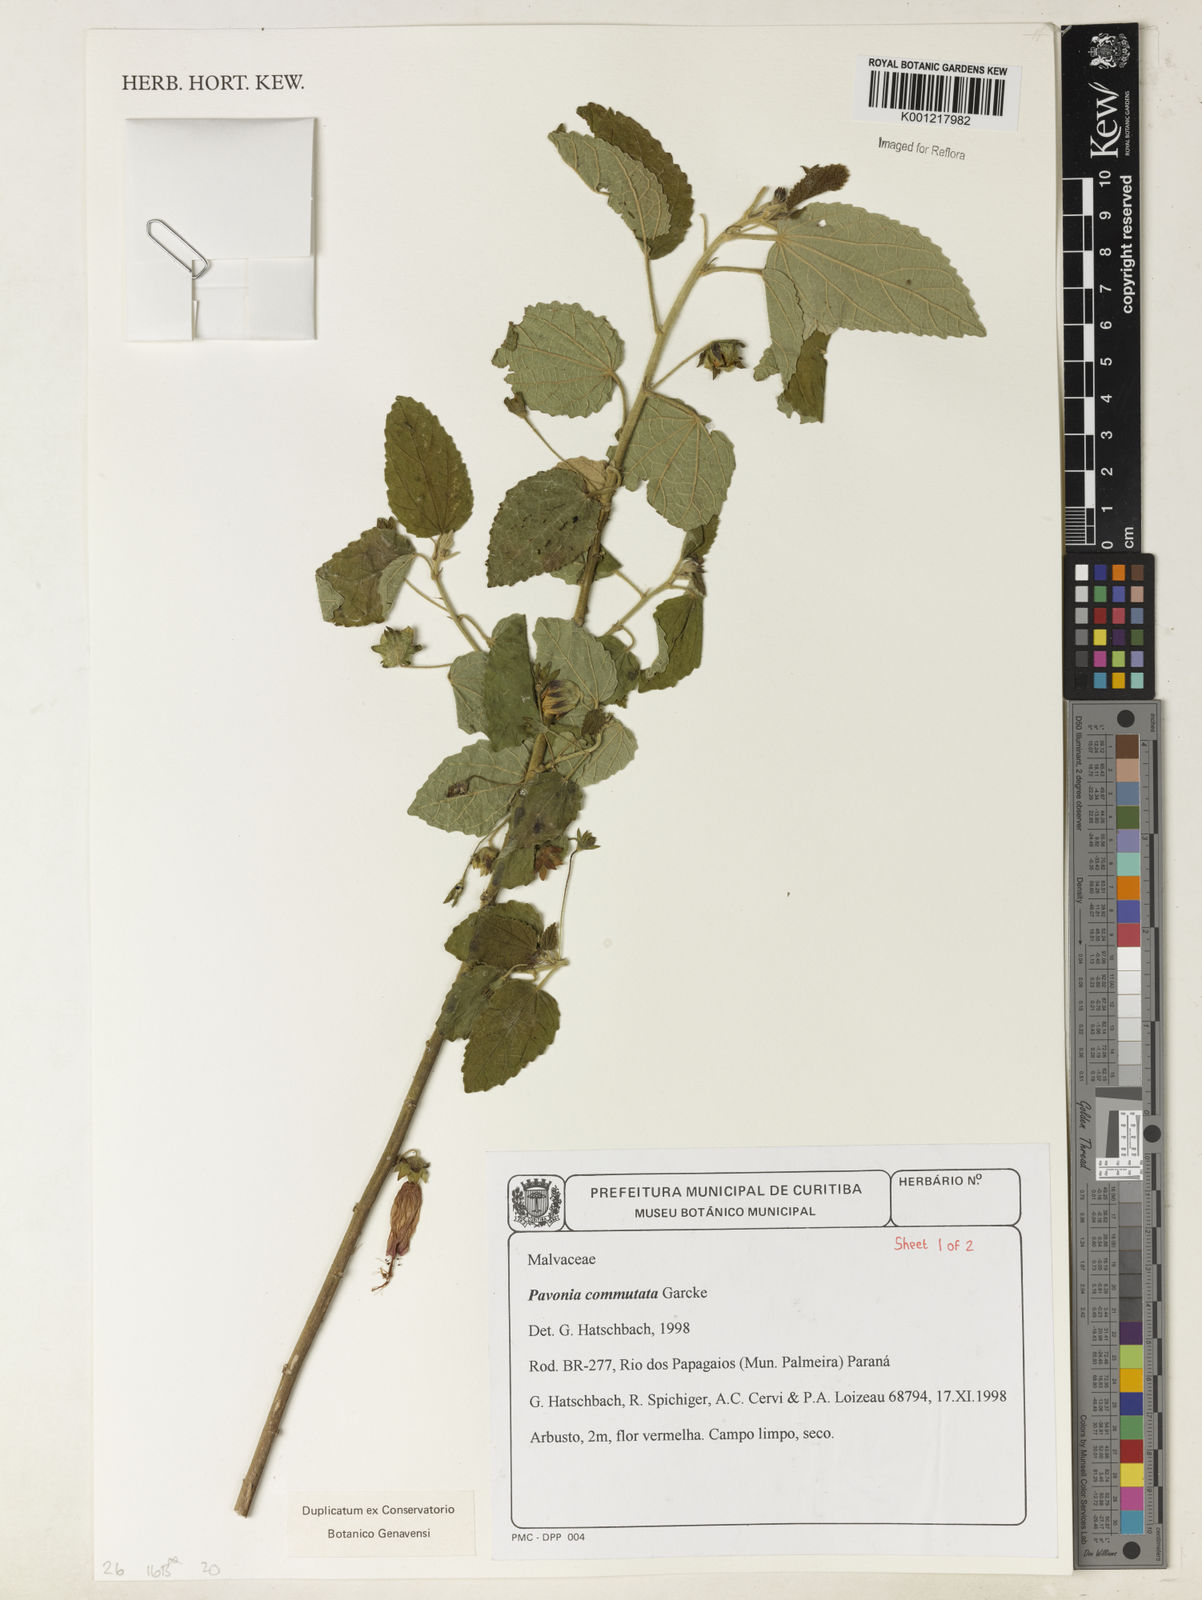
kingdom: Plantae
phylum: Tracheophyta
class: Magnoliopsida
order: Malvales
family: Malvaceae
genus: Pavonia
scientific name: Pavonia commutata
